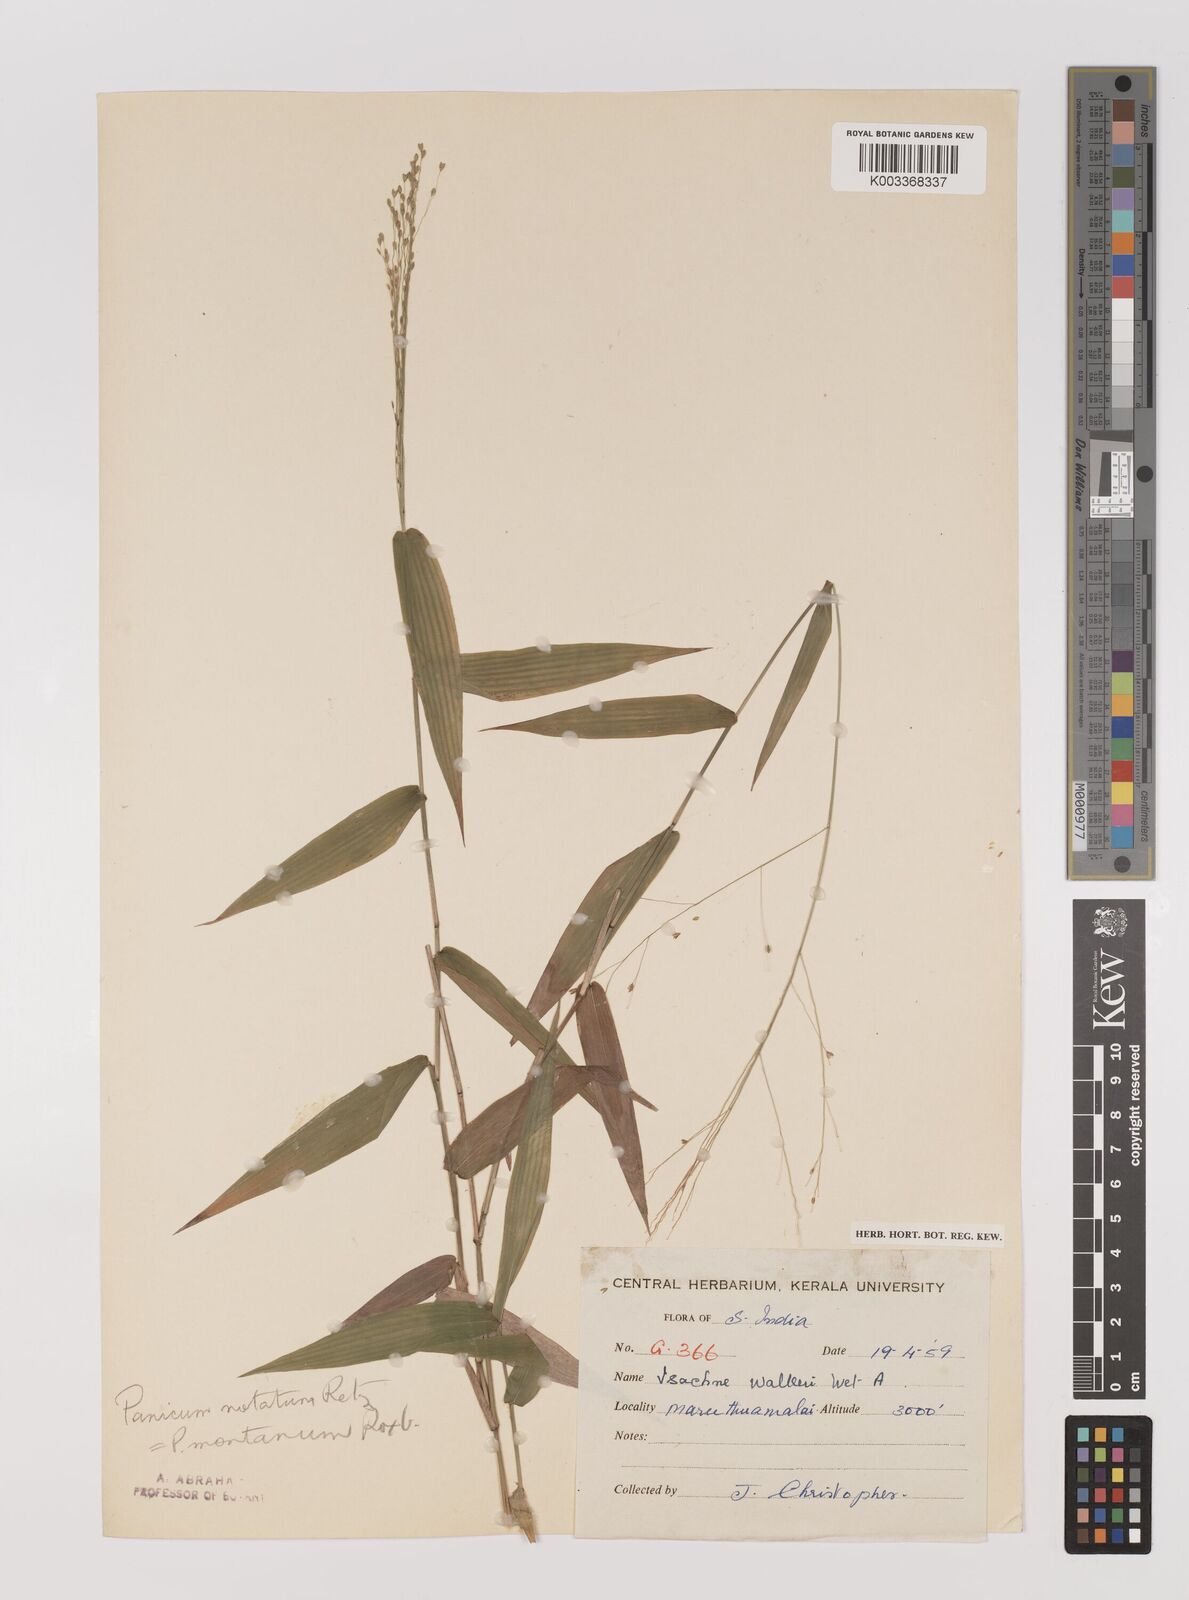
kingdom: Plantae
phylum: Tracheophyta
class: Liliopsida
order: Poales
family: Poaceae
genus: Panicum
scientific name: Panicum notatum
